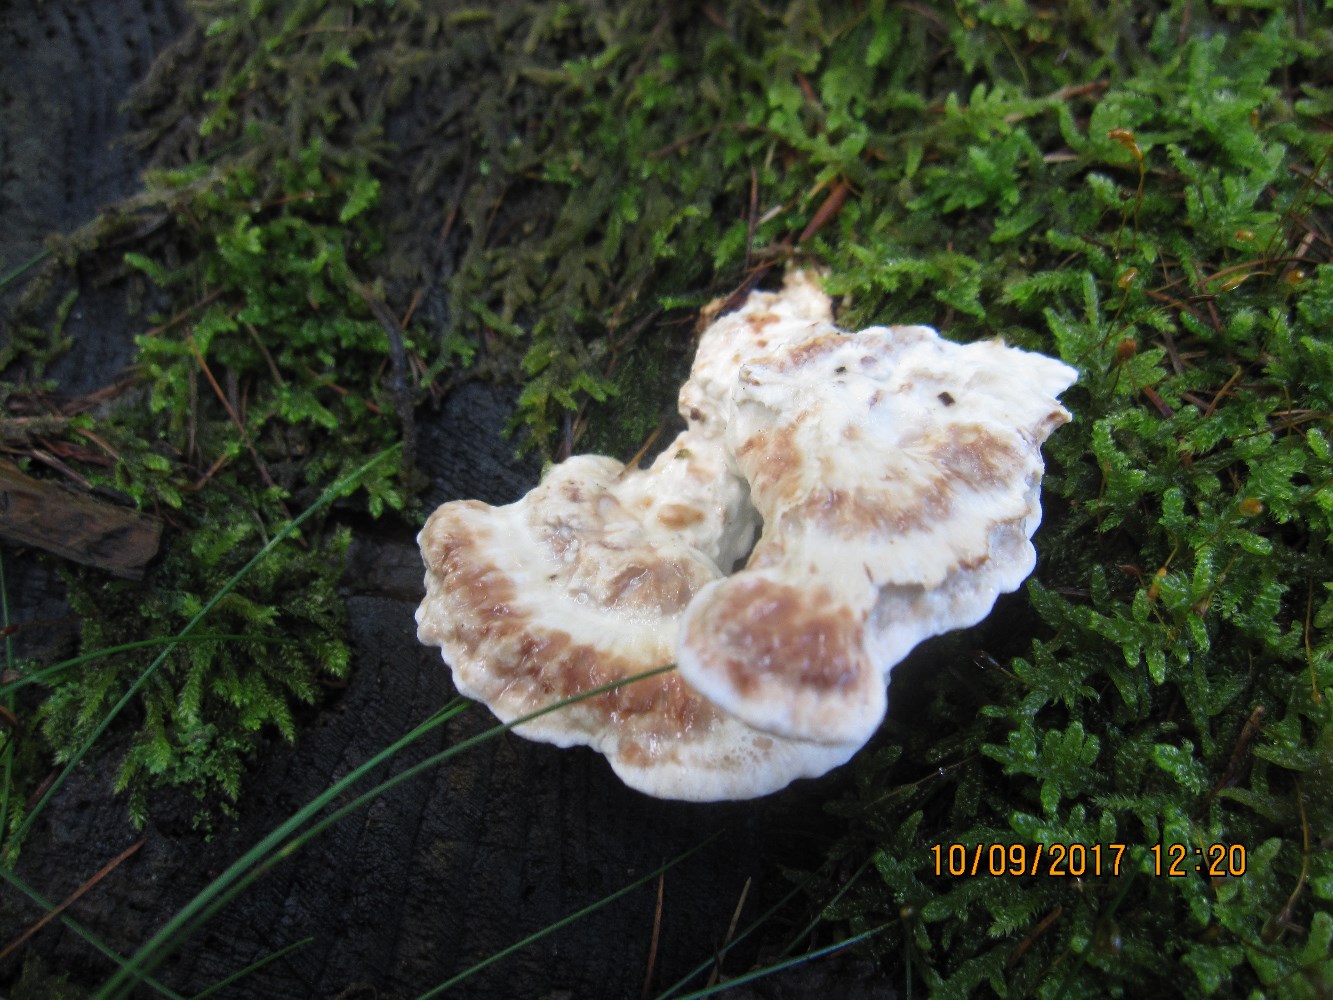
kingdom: Fungi
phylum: Basidiomycota
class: Agaricomycetes
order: Polyporales
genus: Calcipostia
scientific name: Calcipostia guttulata
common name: dråbe-kødporesvamp
